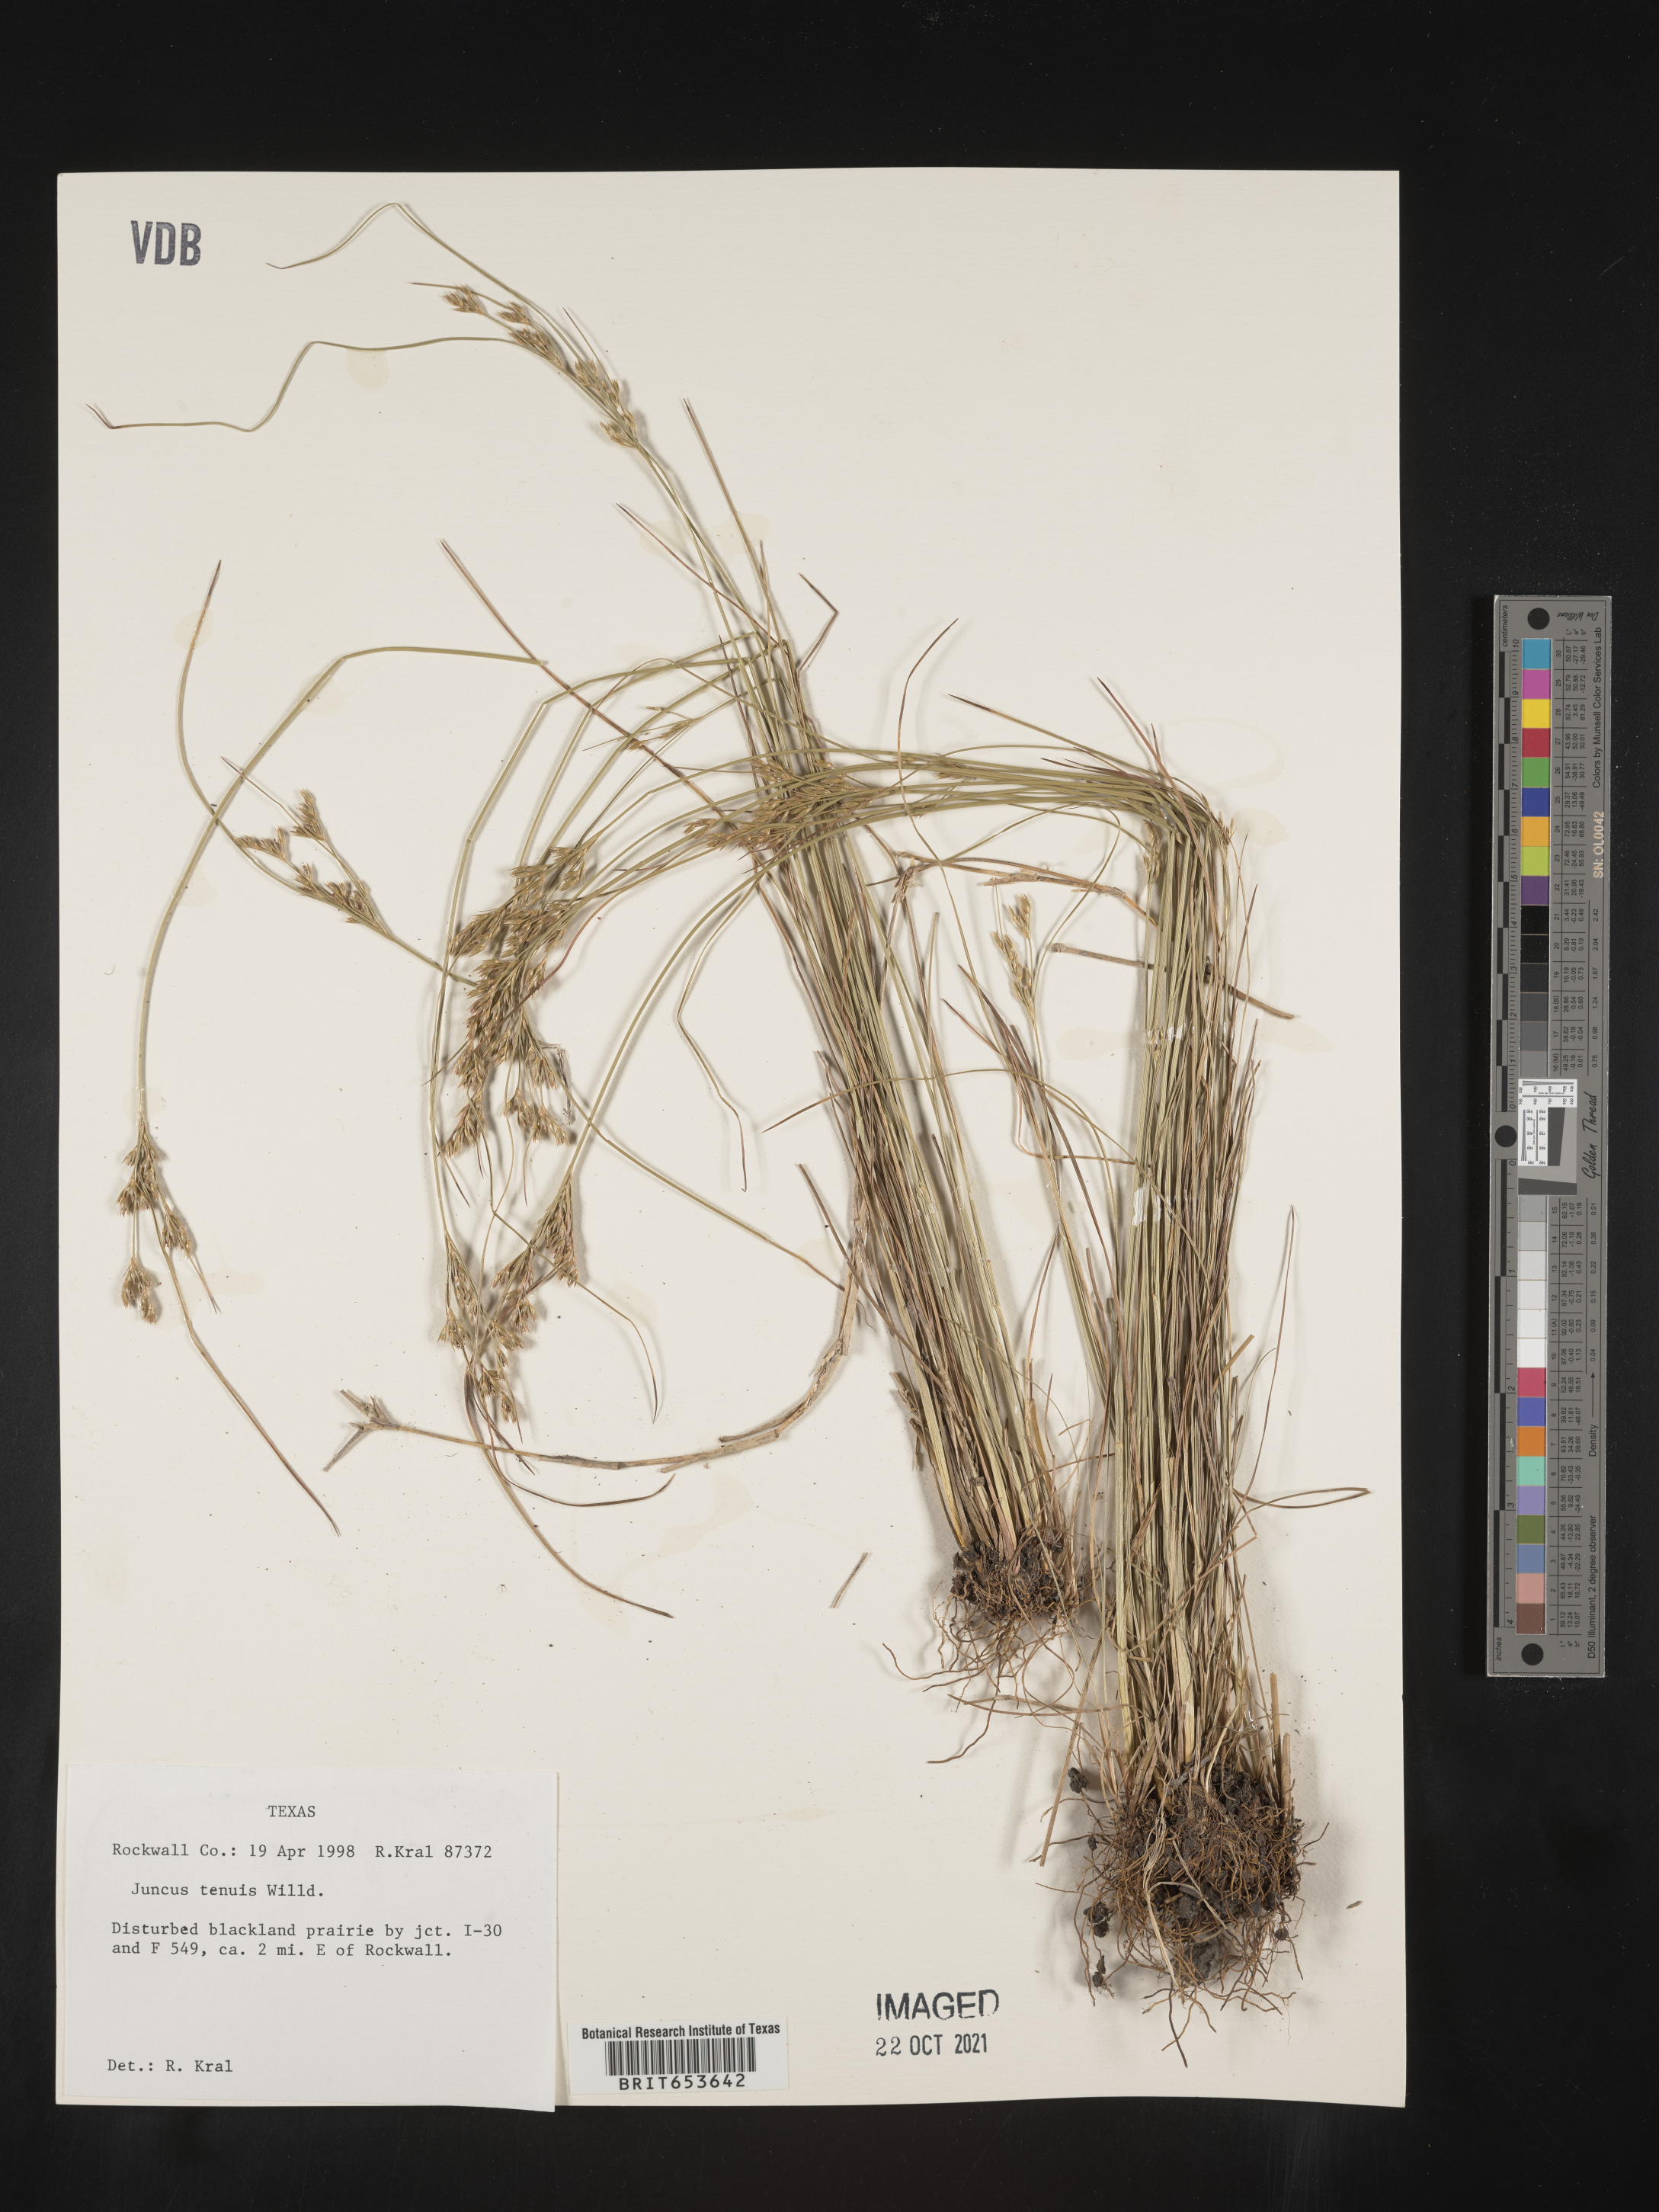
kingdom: Plantae
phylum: Tracheophyta
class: Liliopsida
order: Poales
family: Juncaceae
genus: Juncus
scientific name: Juncus tenuis
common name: Slender rush
